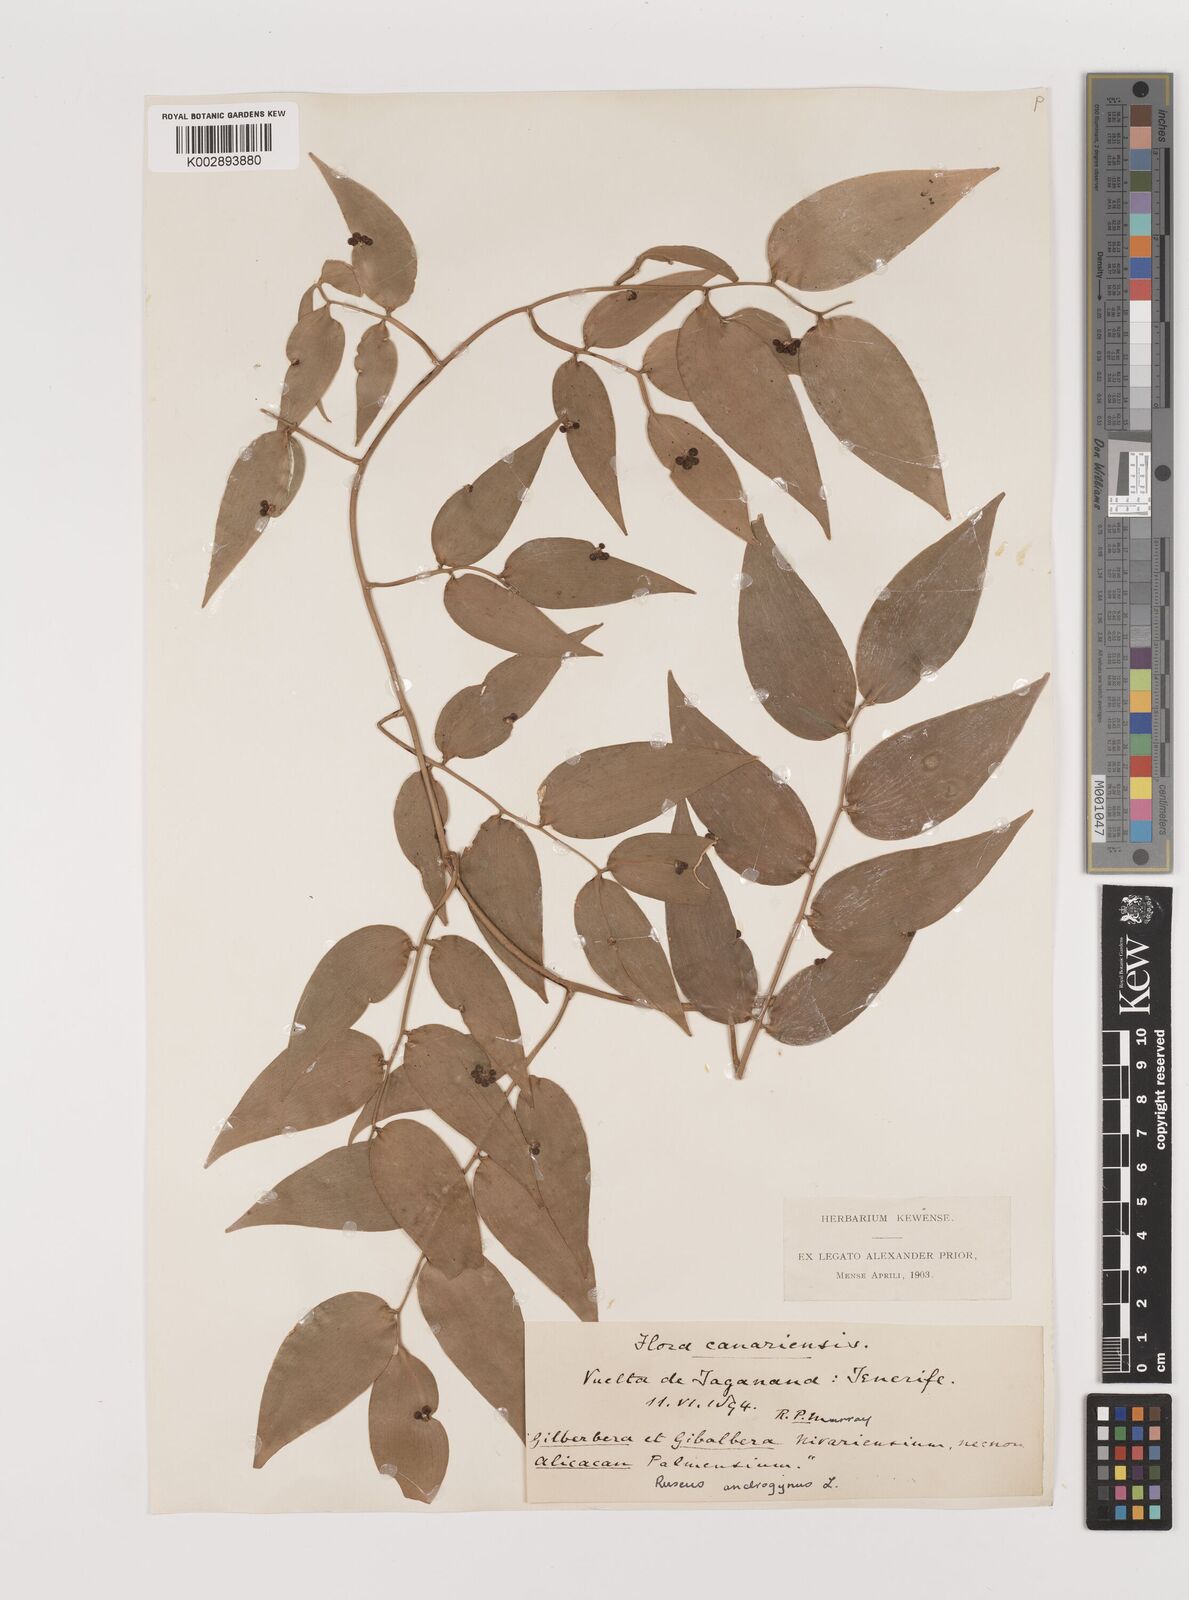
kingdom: Plantae
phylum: Tracheophyta
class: Liliopsida
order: Asparagales
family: Asparagaceae
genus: Semele
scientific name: Semele androgyna
